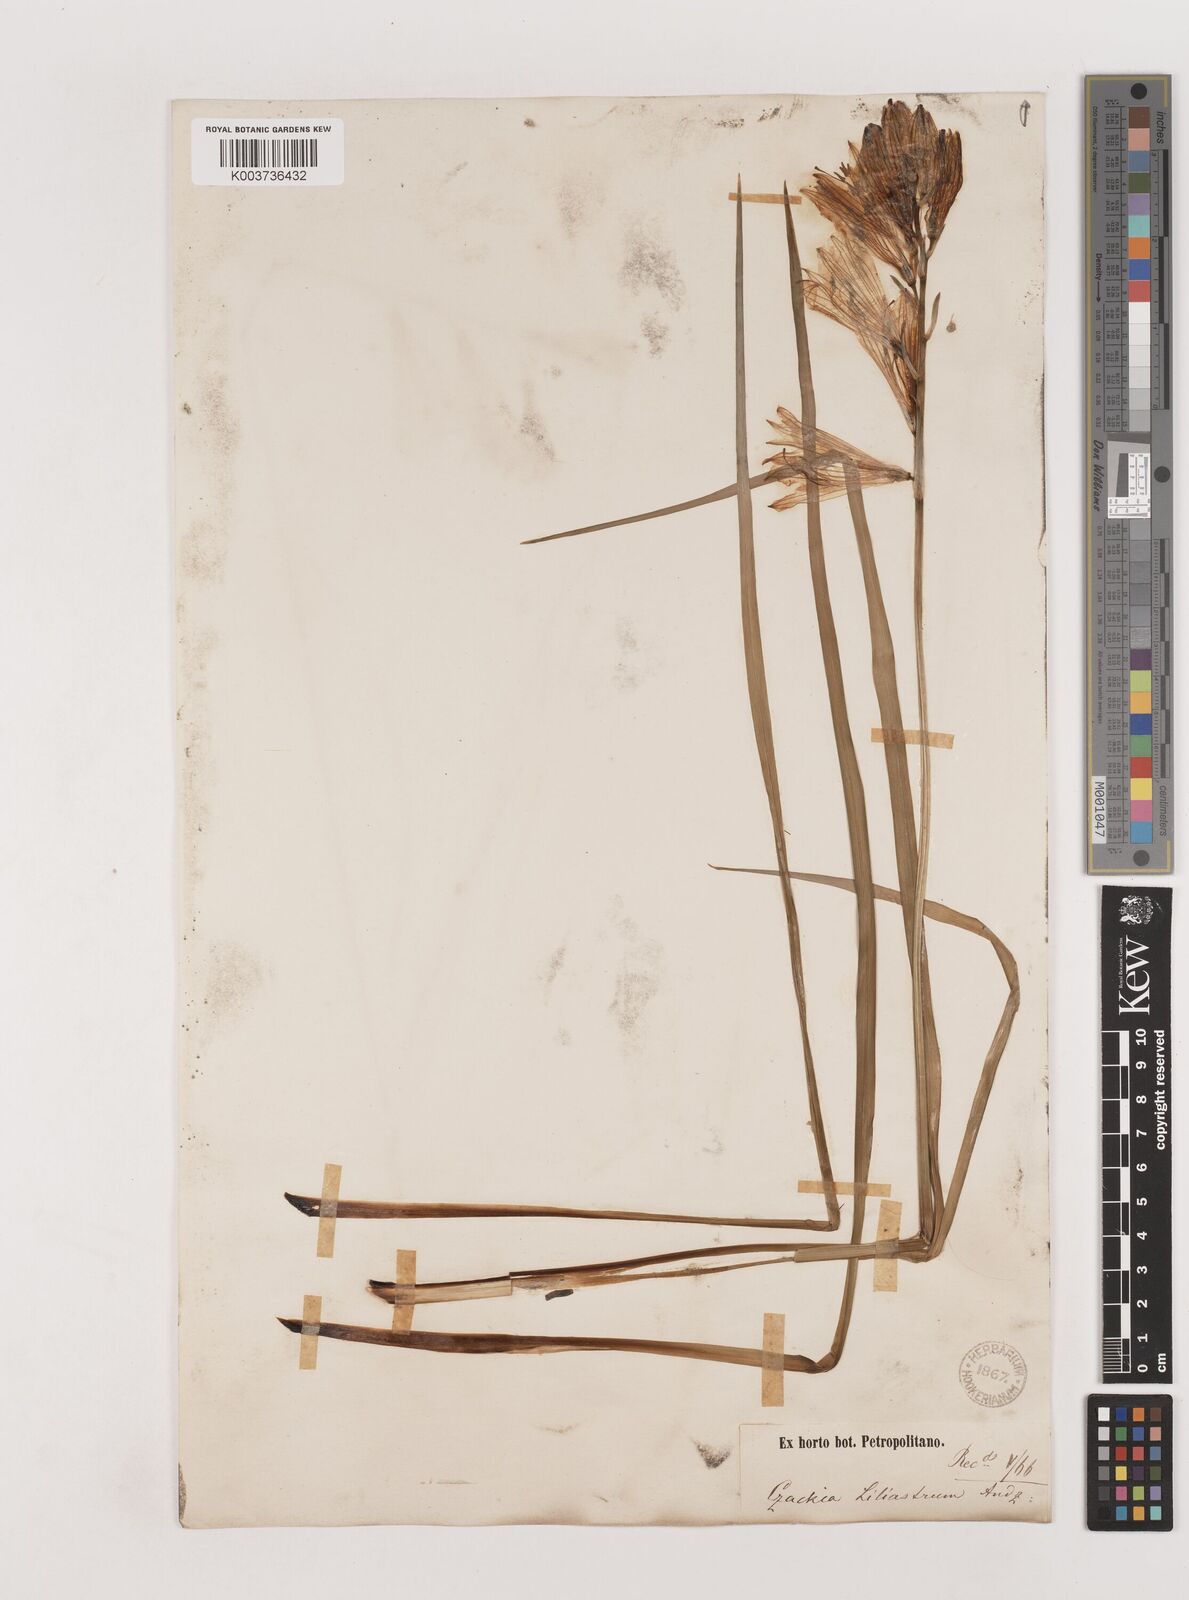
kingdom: Plantae
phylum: Tracheophyta
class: Liliopsida
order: Asparagales
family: Asparagaceae
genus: Paradisea
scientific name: Paradisea liliastrum
